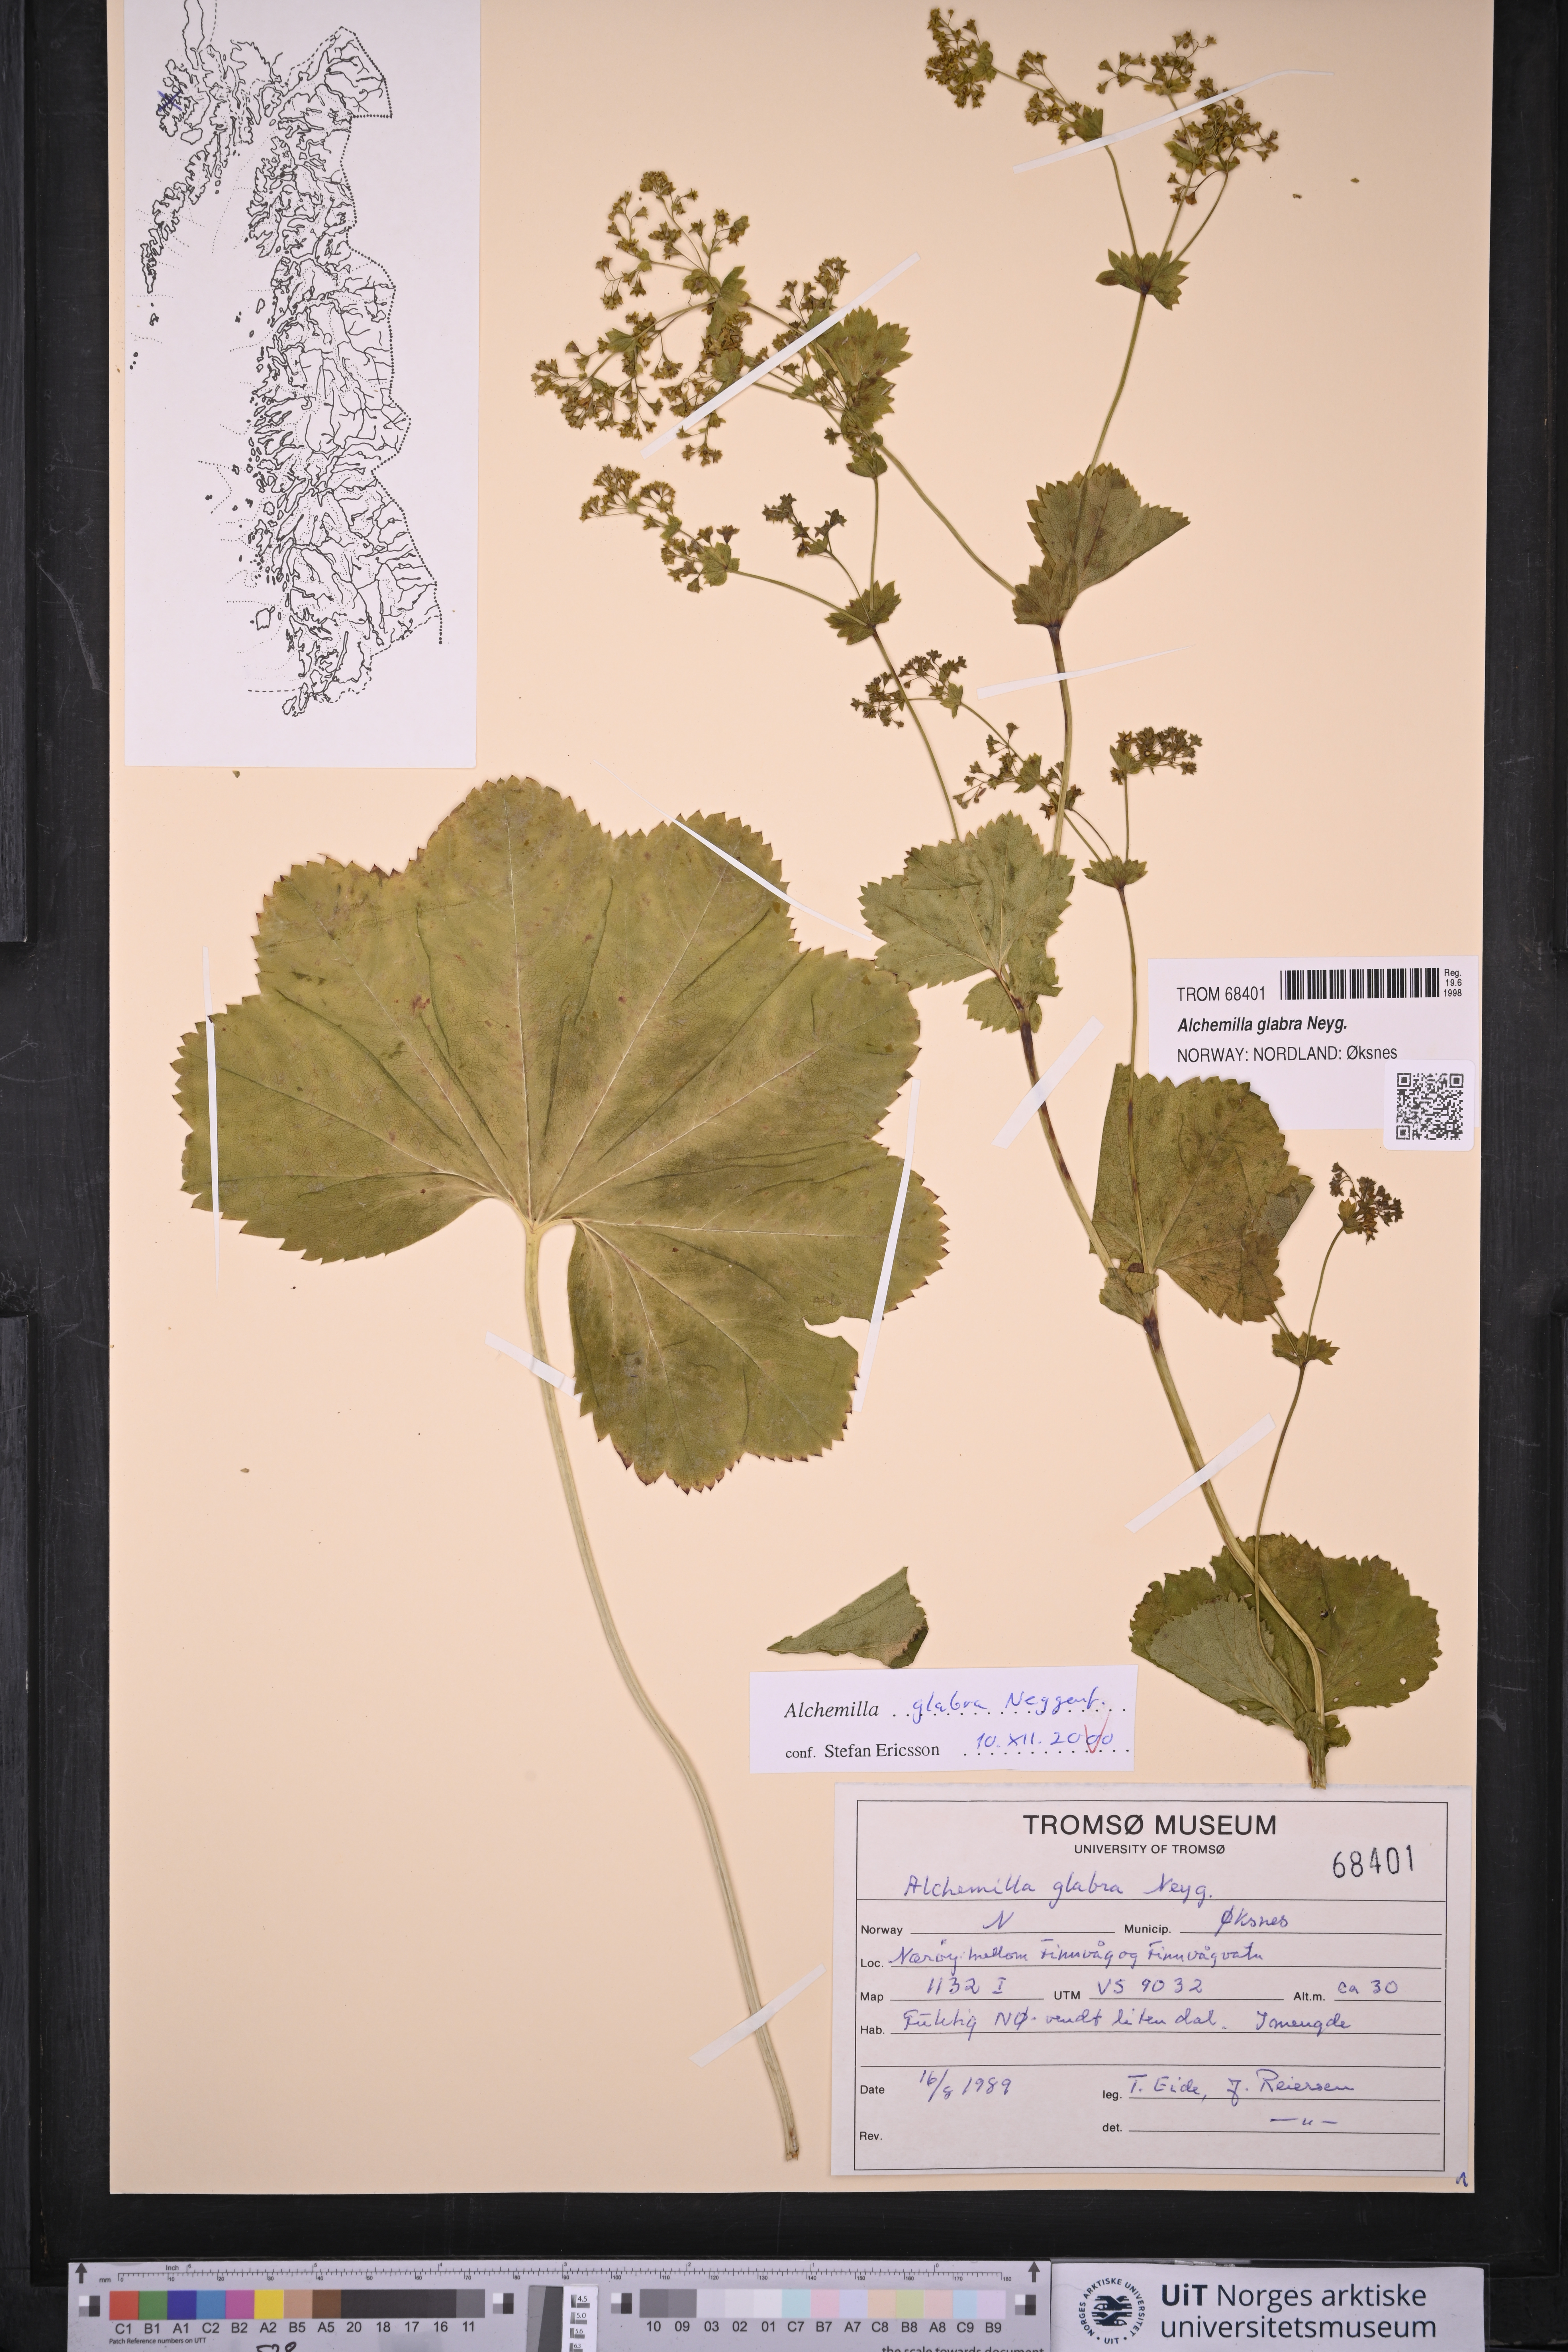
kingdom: Plantae
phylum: Tracheophyta
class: Magnoliopsida
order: Rosales
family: Rosaceae
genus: Alchemilla
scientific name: Alchemilla glabra
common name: Smooth lady's-mantle
